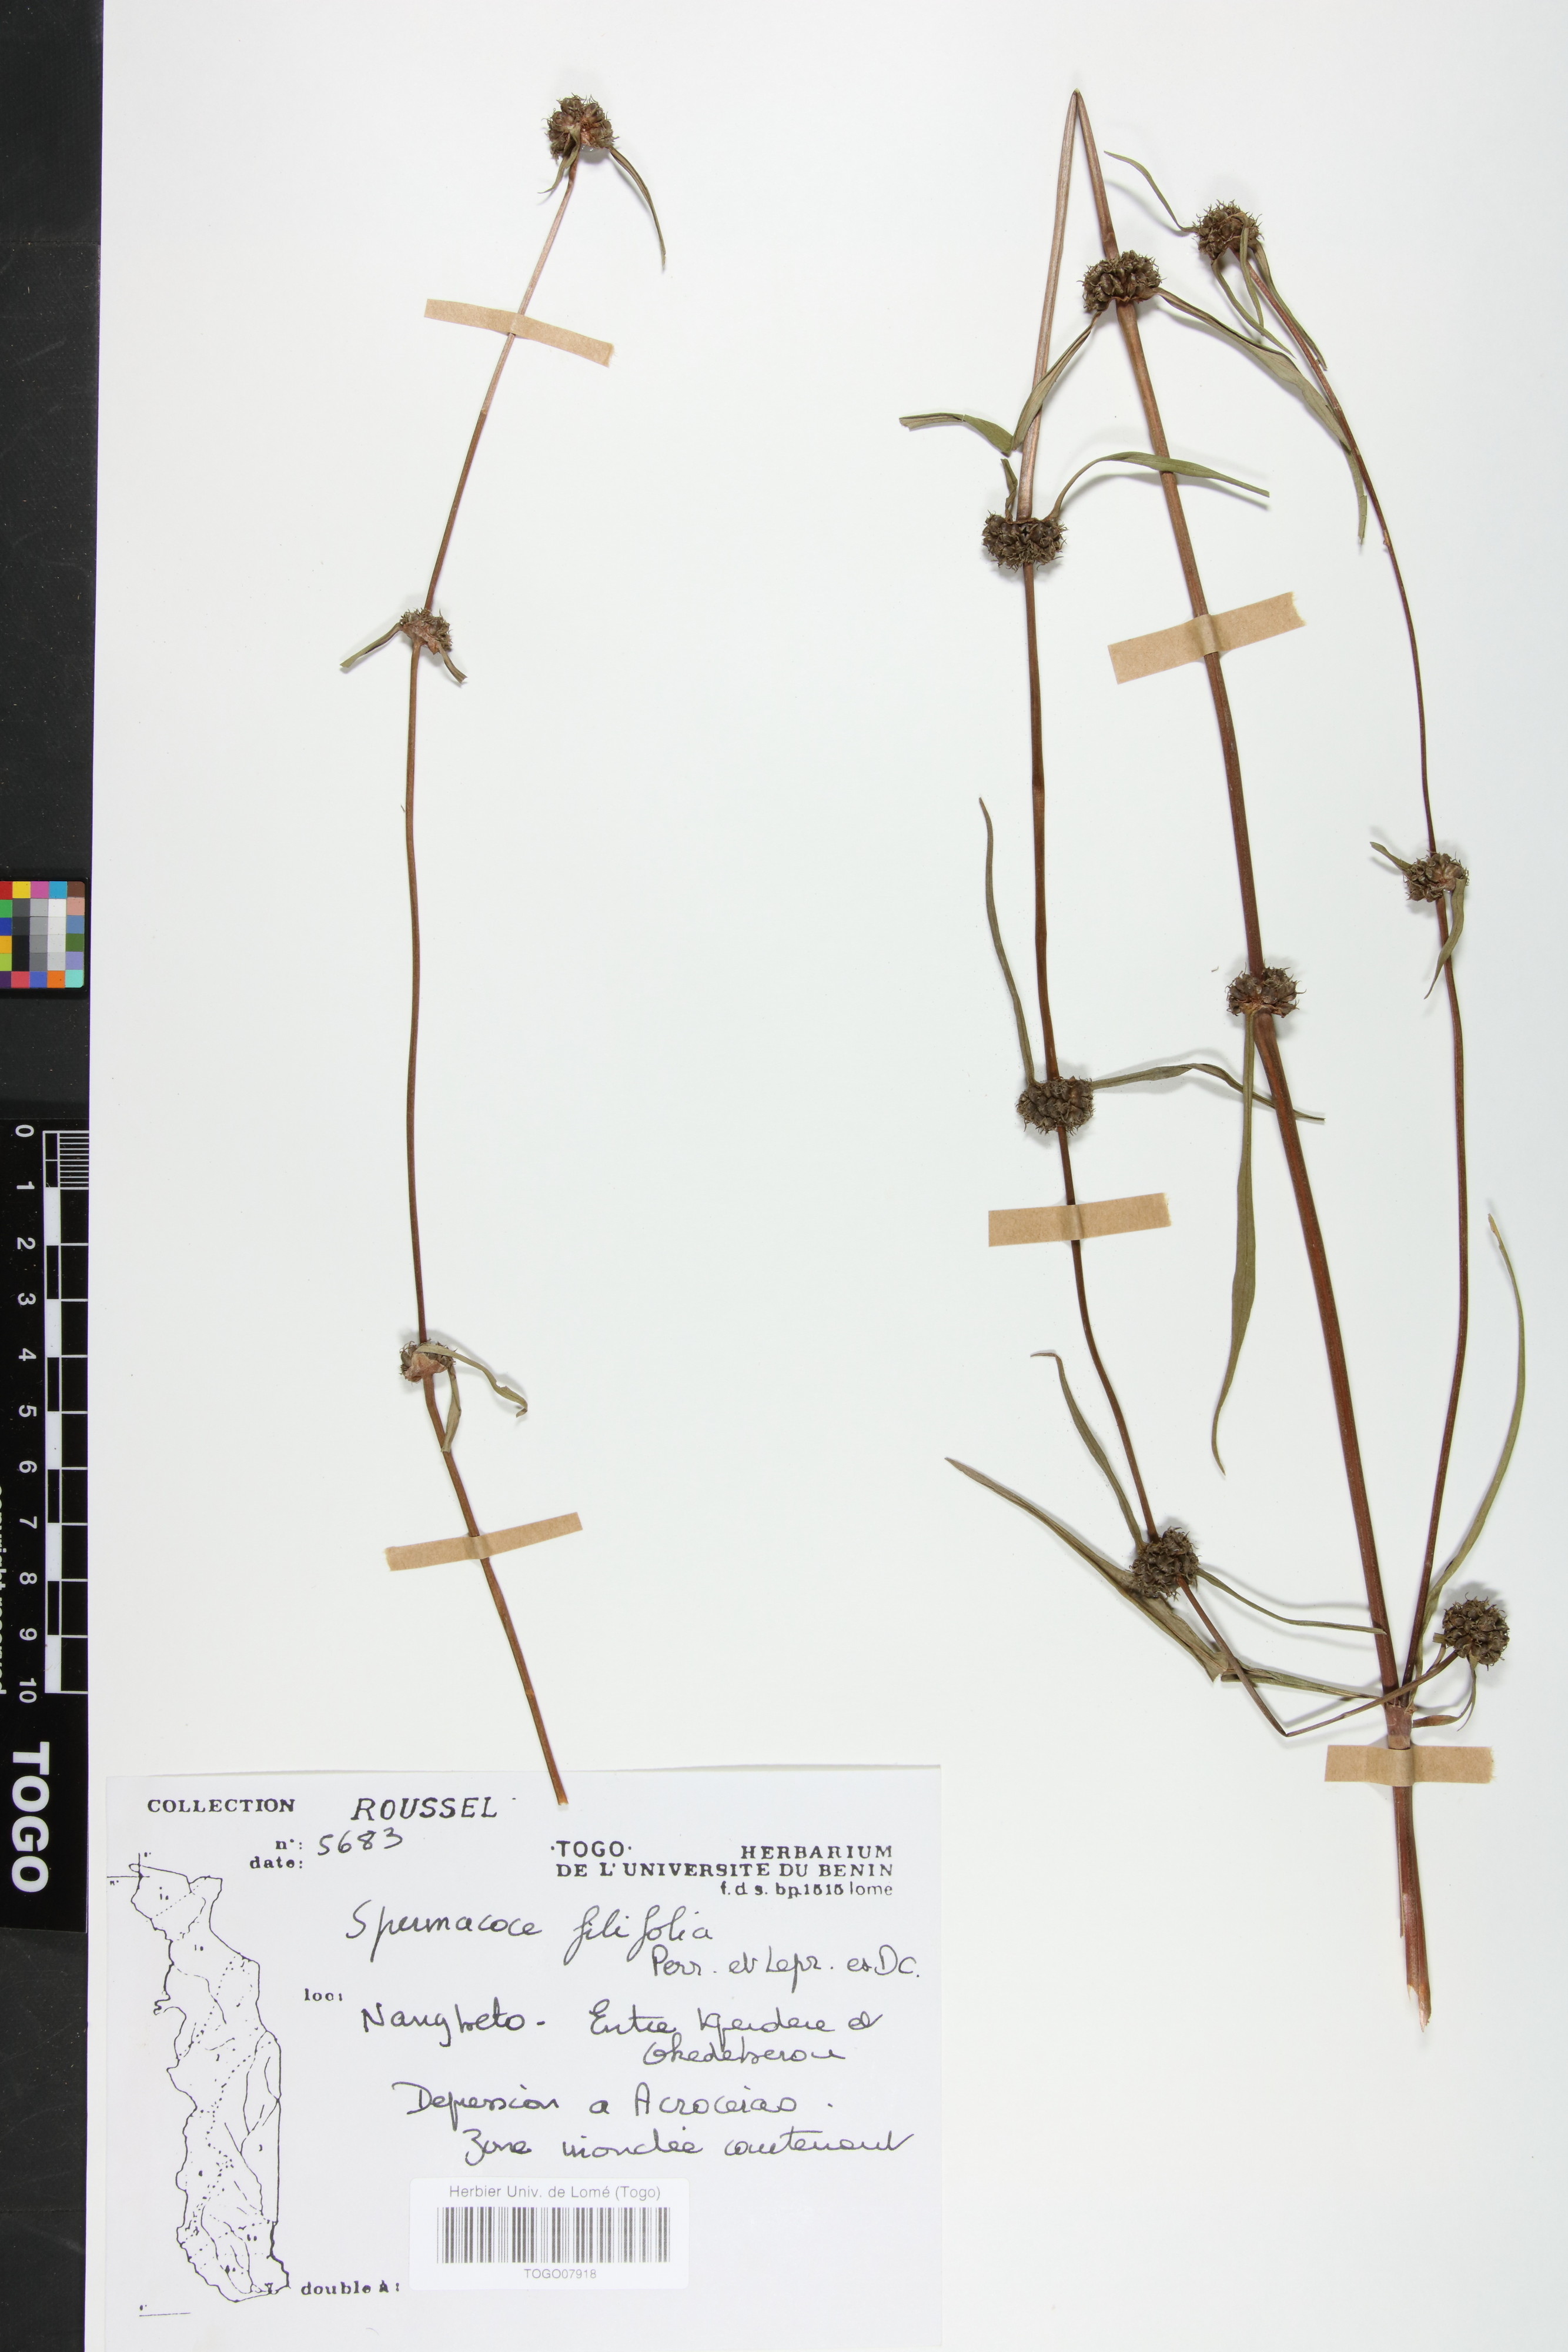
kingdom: Plantae
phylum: Tracheophyta
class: Magnoliopsida
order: Gentianales
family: Rubiaceae
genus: Spermacoce
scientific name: Spermacoce filifolia
